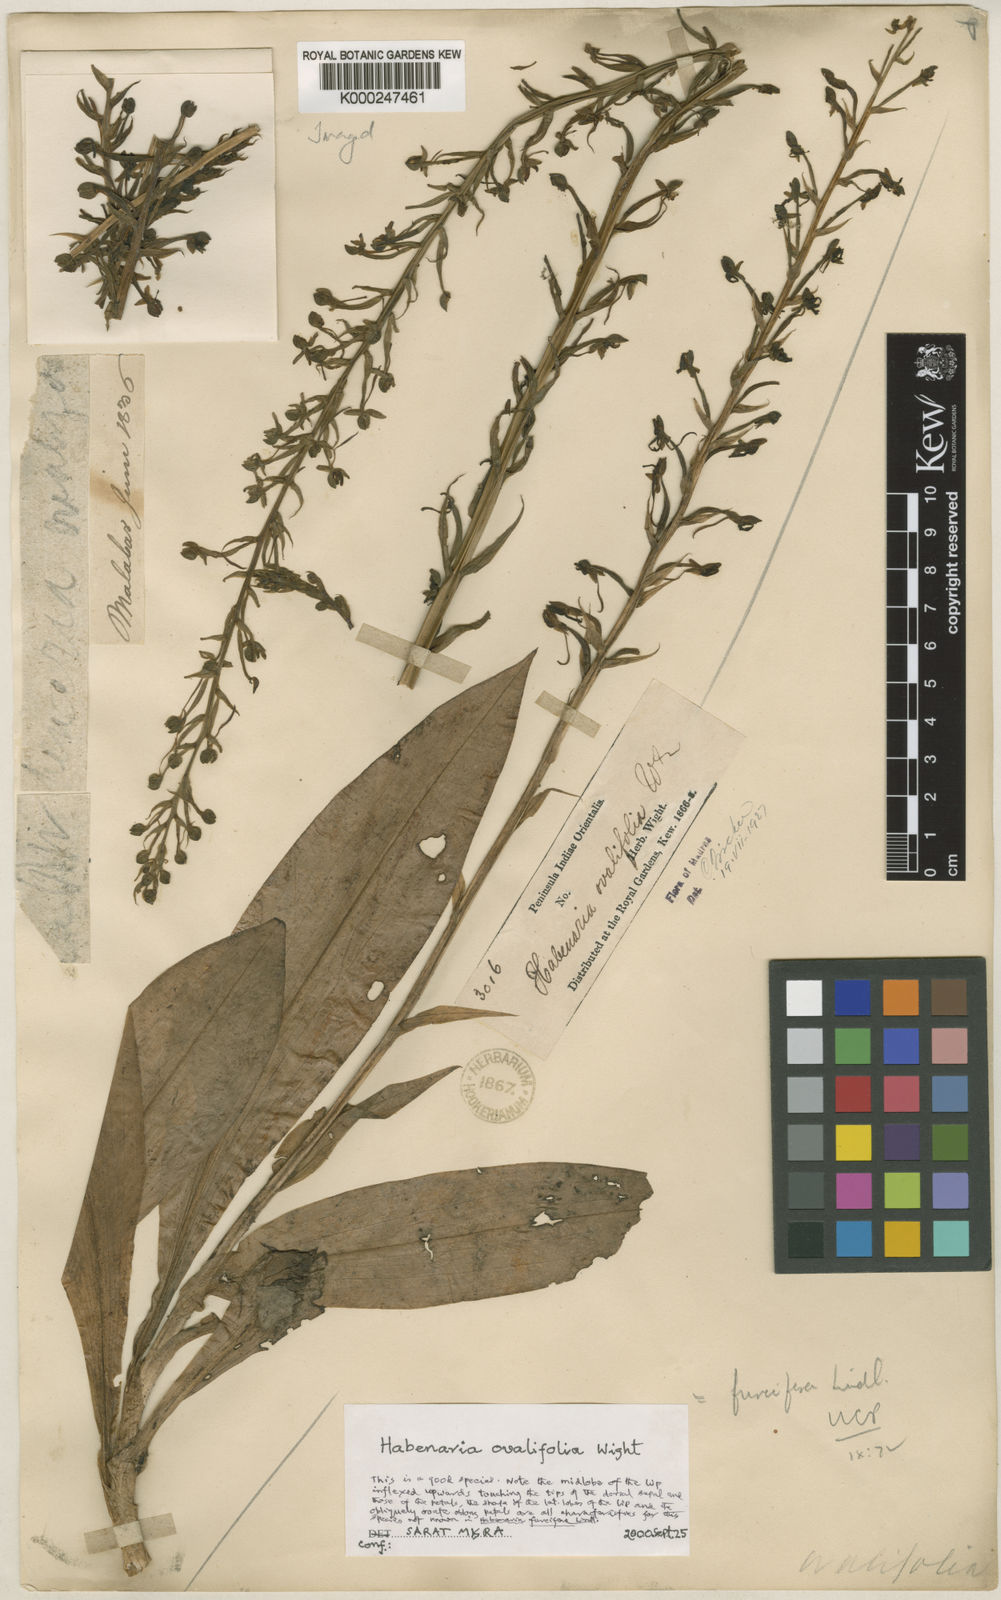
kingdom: Plantae
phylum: Tracheophyta
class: Liliopsida
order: Asparagales
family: Orchidaceae
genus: Habenaria
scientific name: Habenaria furcifera
